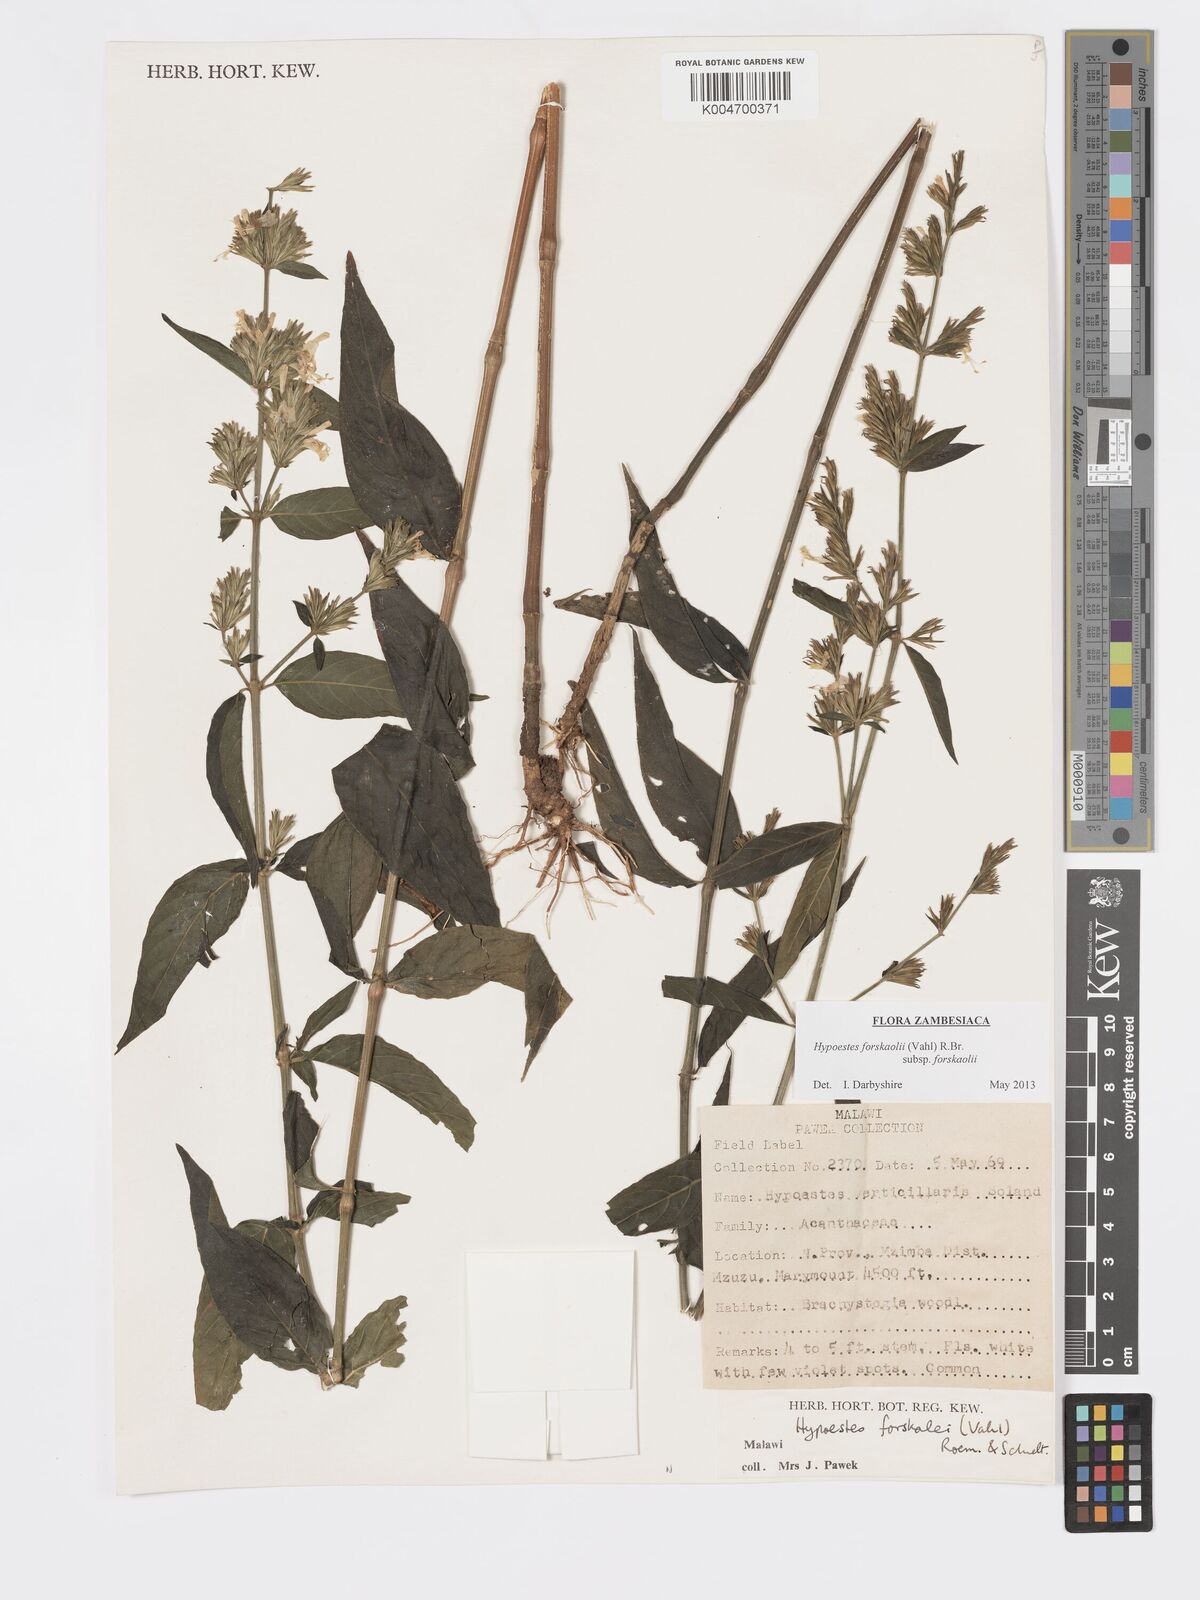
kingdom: Plantae
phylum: Tracheophyta
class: Magnoliopsida
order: Lamiales
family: Acanthaceae
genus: Hypoestes
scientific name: Hypoestes forskaolii
